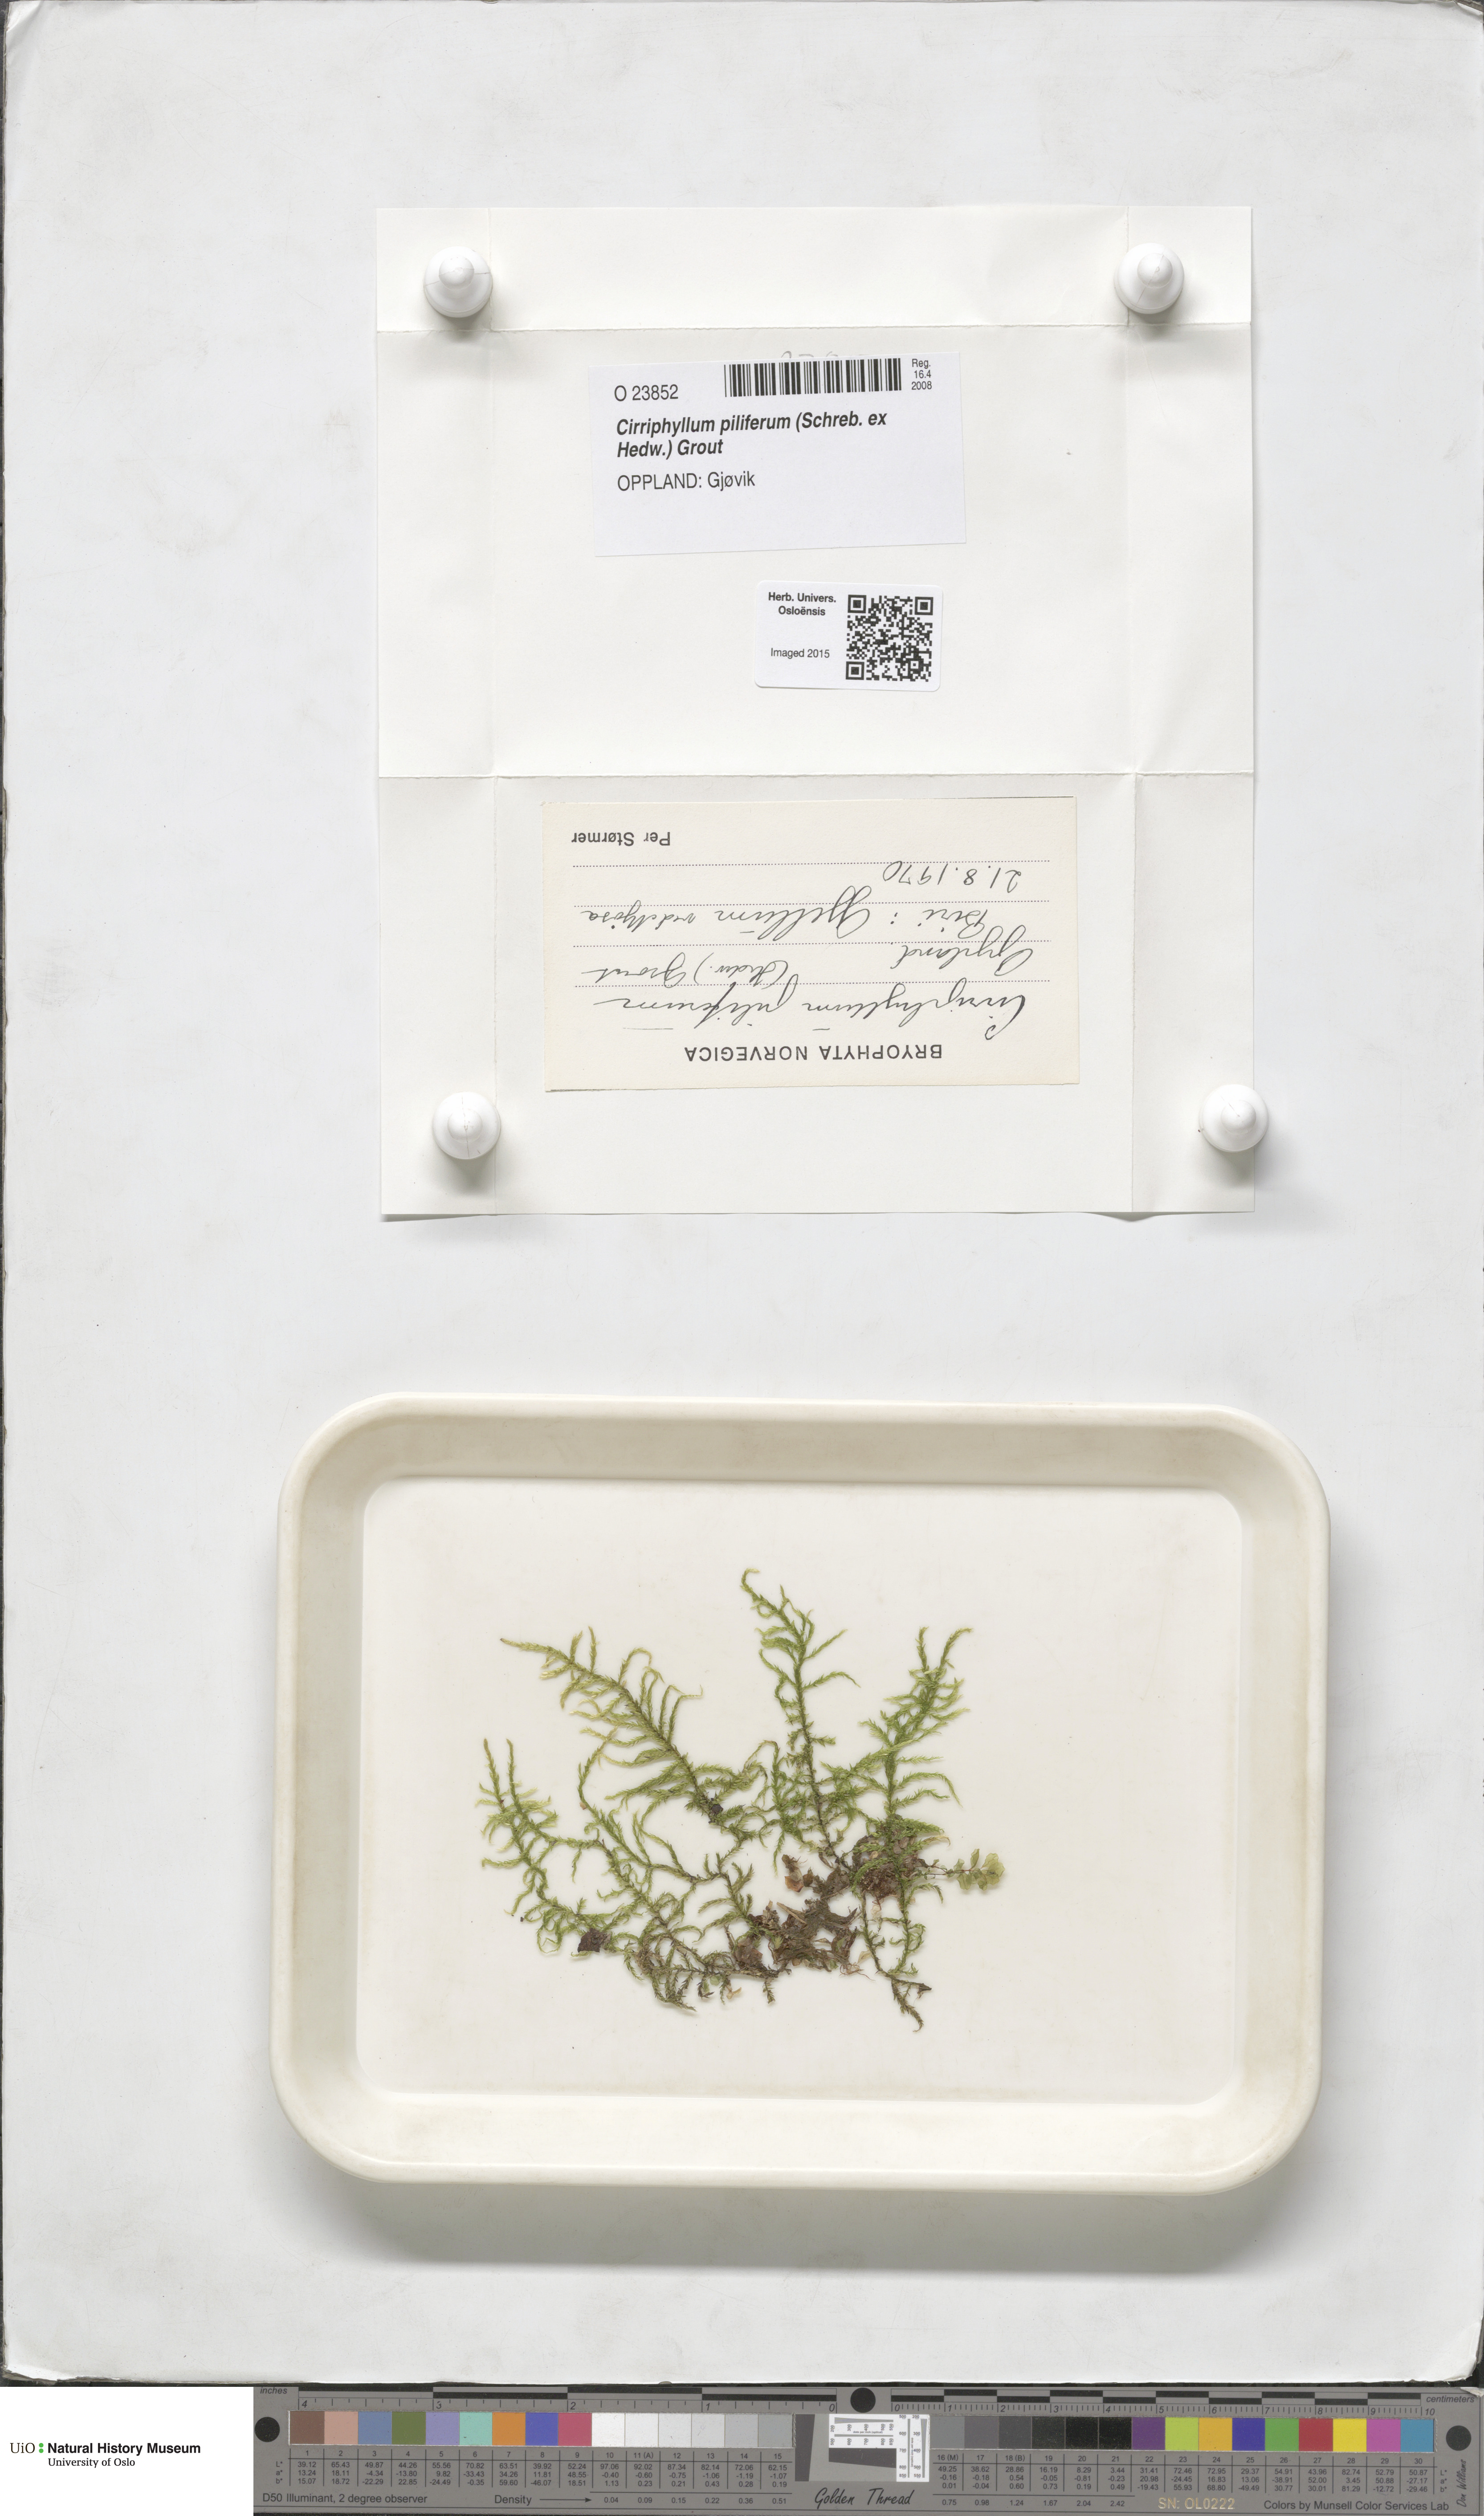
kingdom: Plantae
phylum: Bryophyta
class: Bryopsida
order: Hypnales
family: Brachytheciaceae
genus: Cirriphyllum
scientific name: Cirriphyllum piliferum
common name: Hair-pointed moss
